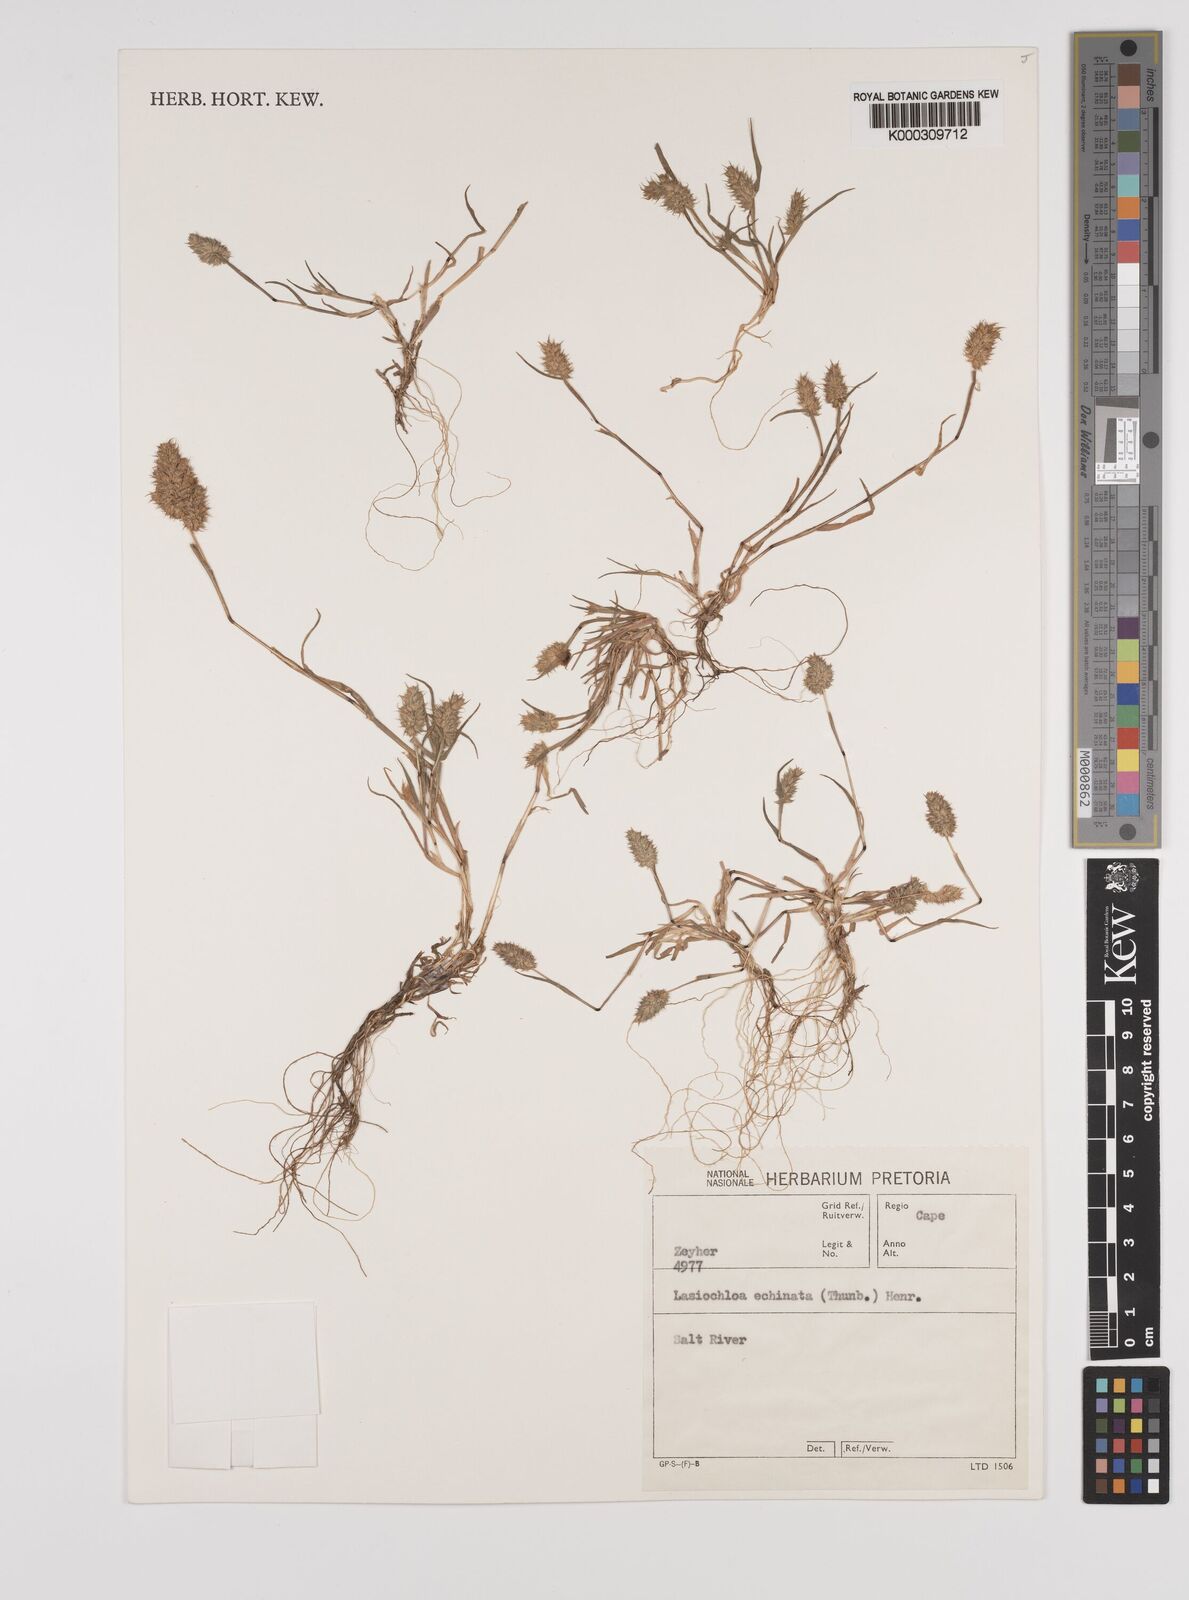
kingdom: Plantae
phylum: Tracheophyta
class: Liliopsida
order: Poales
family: Poaceae
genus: Tribolium
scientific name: Tribolium echinatum
